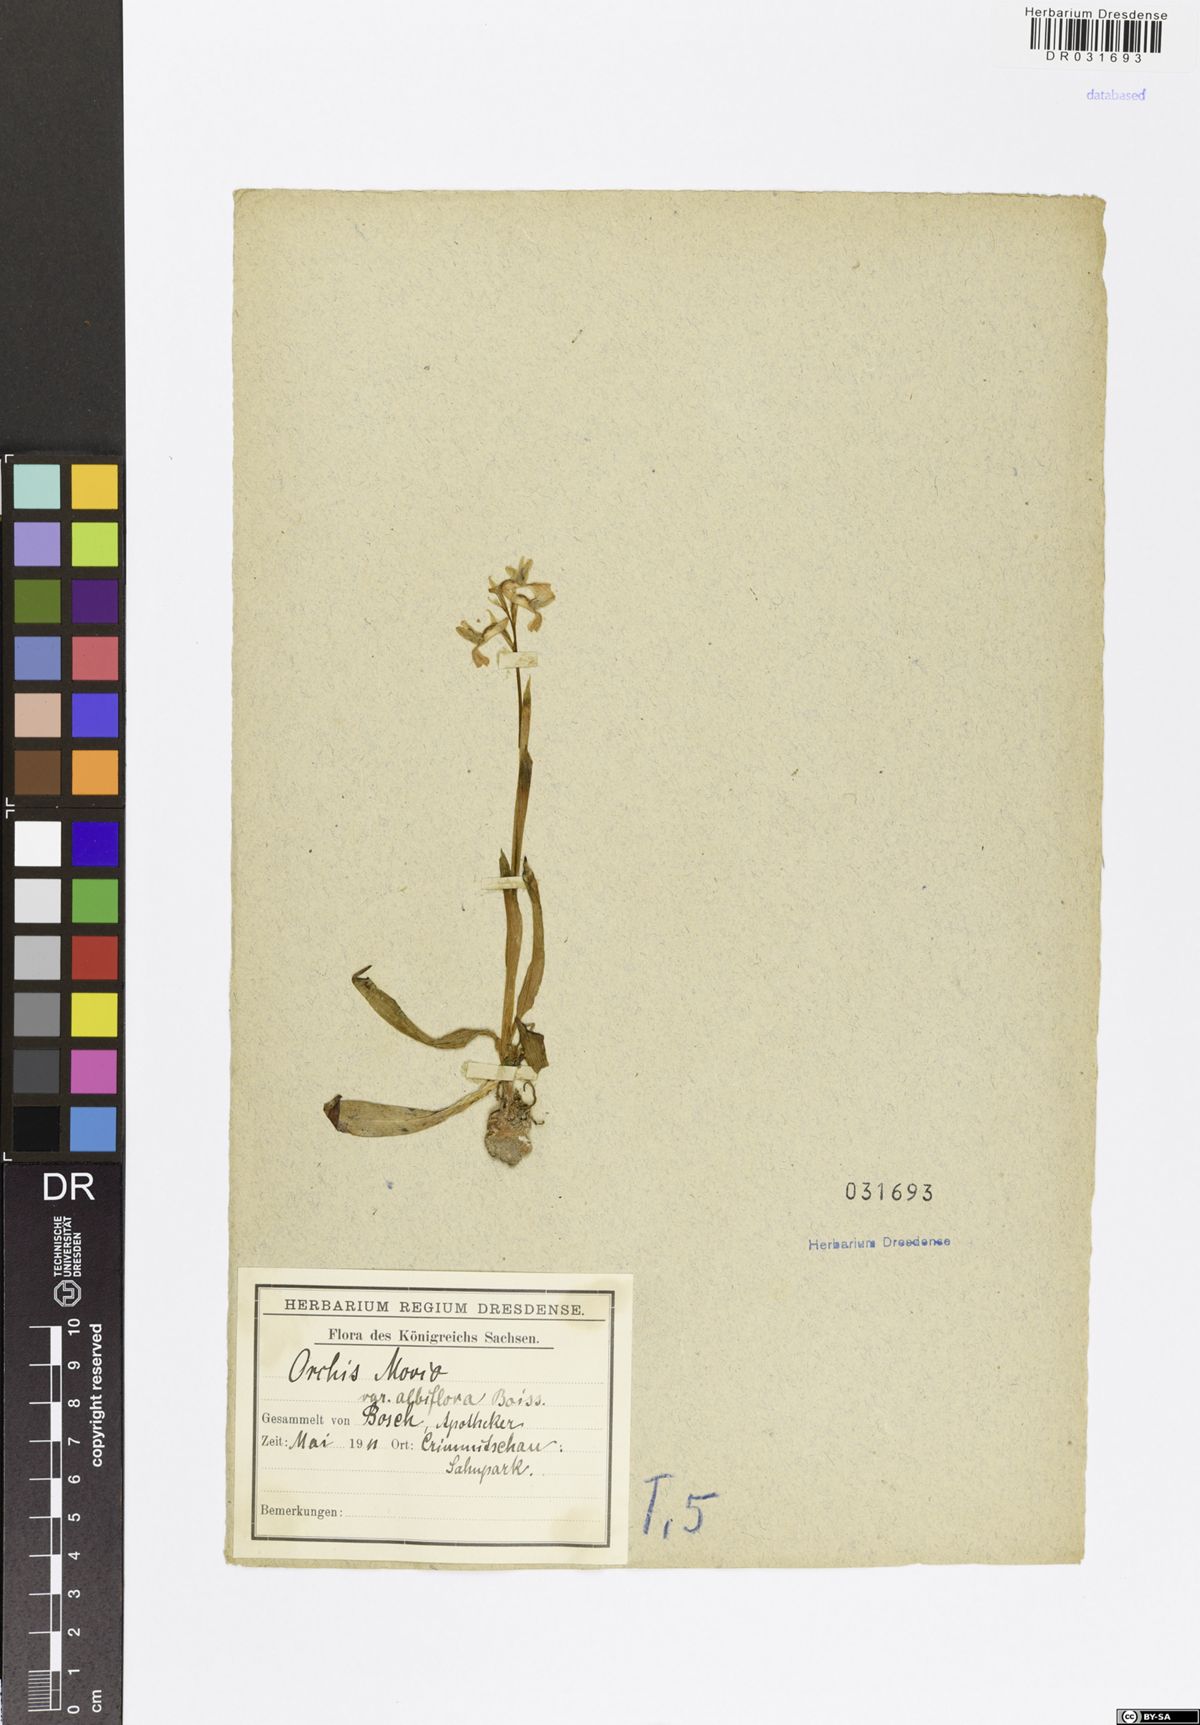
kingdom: Plantae
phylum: Tracheophyta
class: Liliopsida
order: Asparagales
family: Orchidaceae
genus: Anacamptis
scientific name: Anacamptis morio
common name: Green-winged orchid
